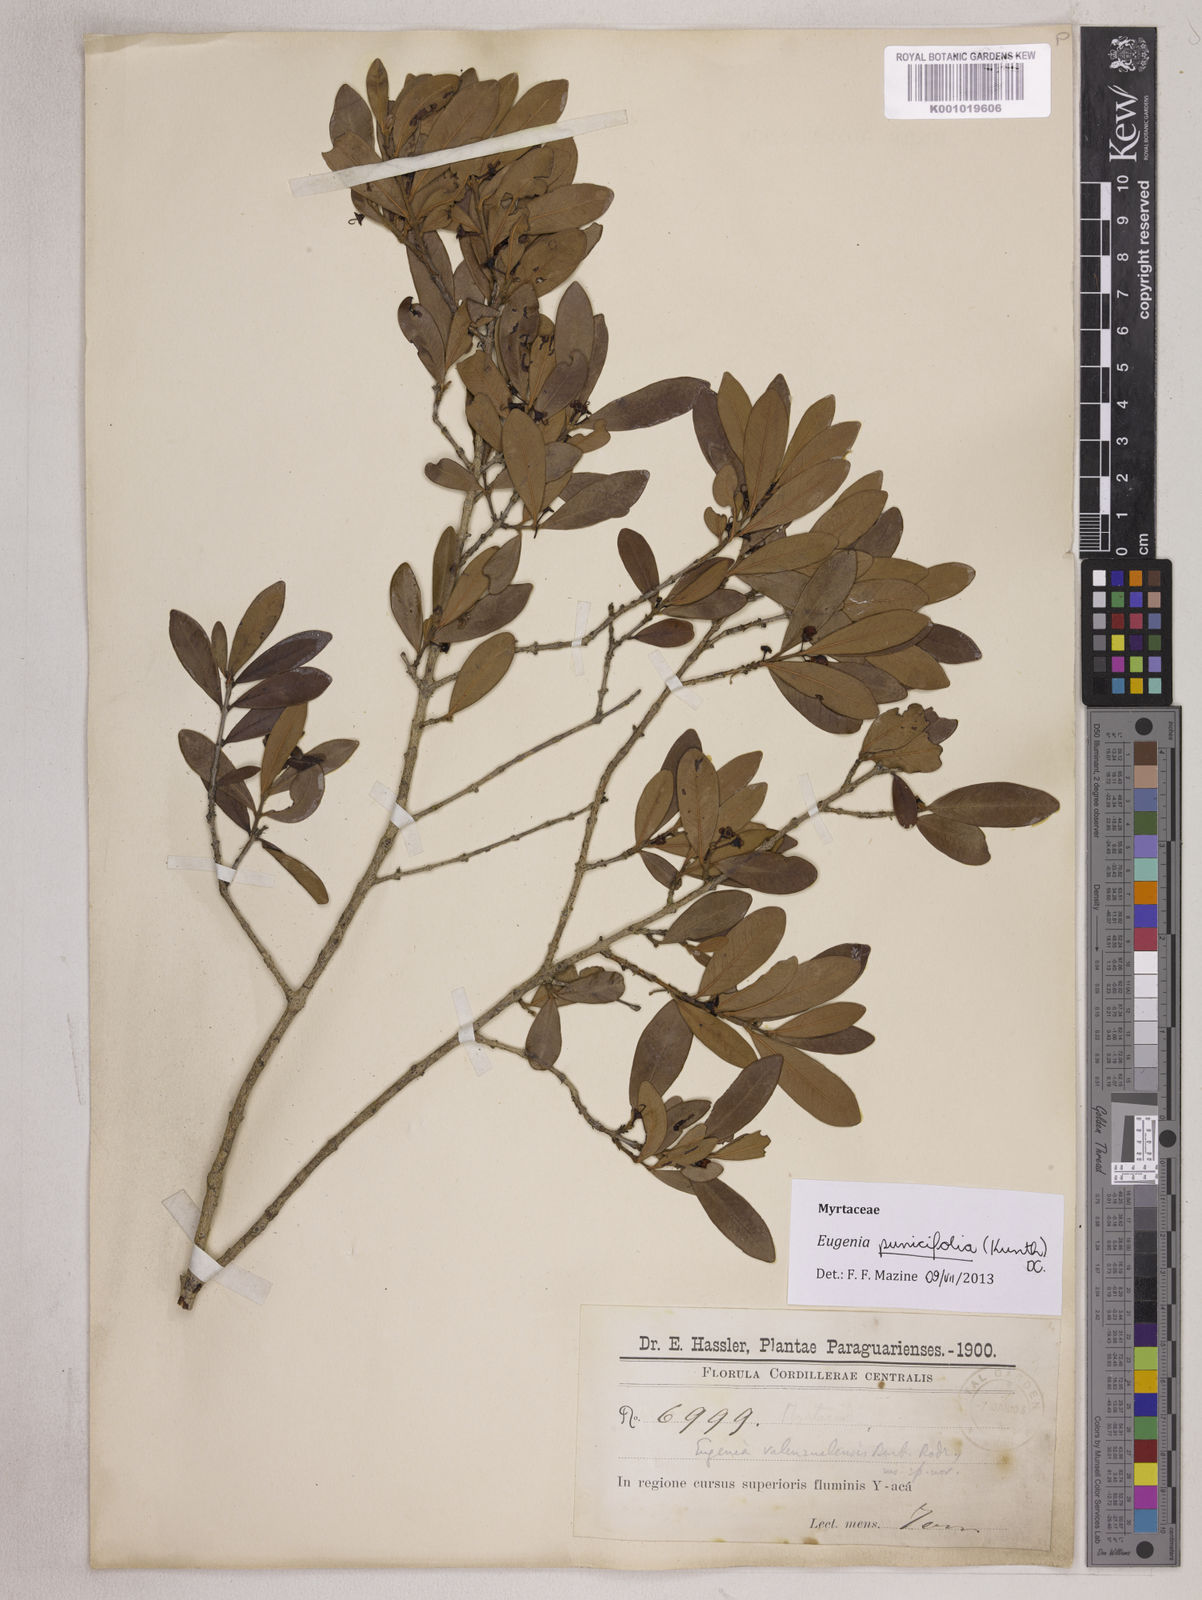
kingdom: Plantae
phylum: Tracheophyta
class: Magnoliopsida
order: Myrtales
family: Myrtaceae
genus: Eugenia
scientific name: Eugenia punicifolia
